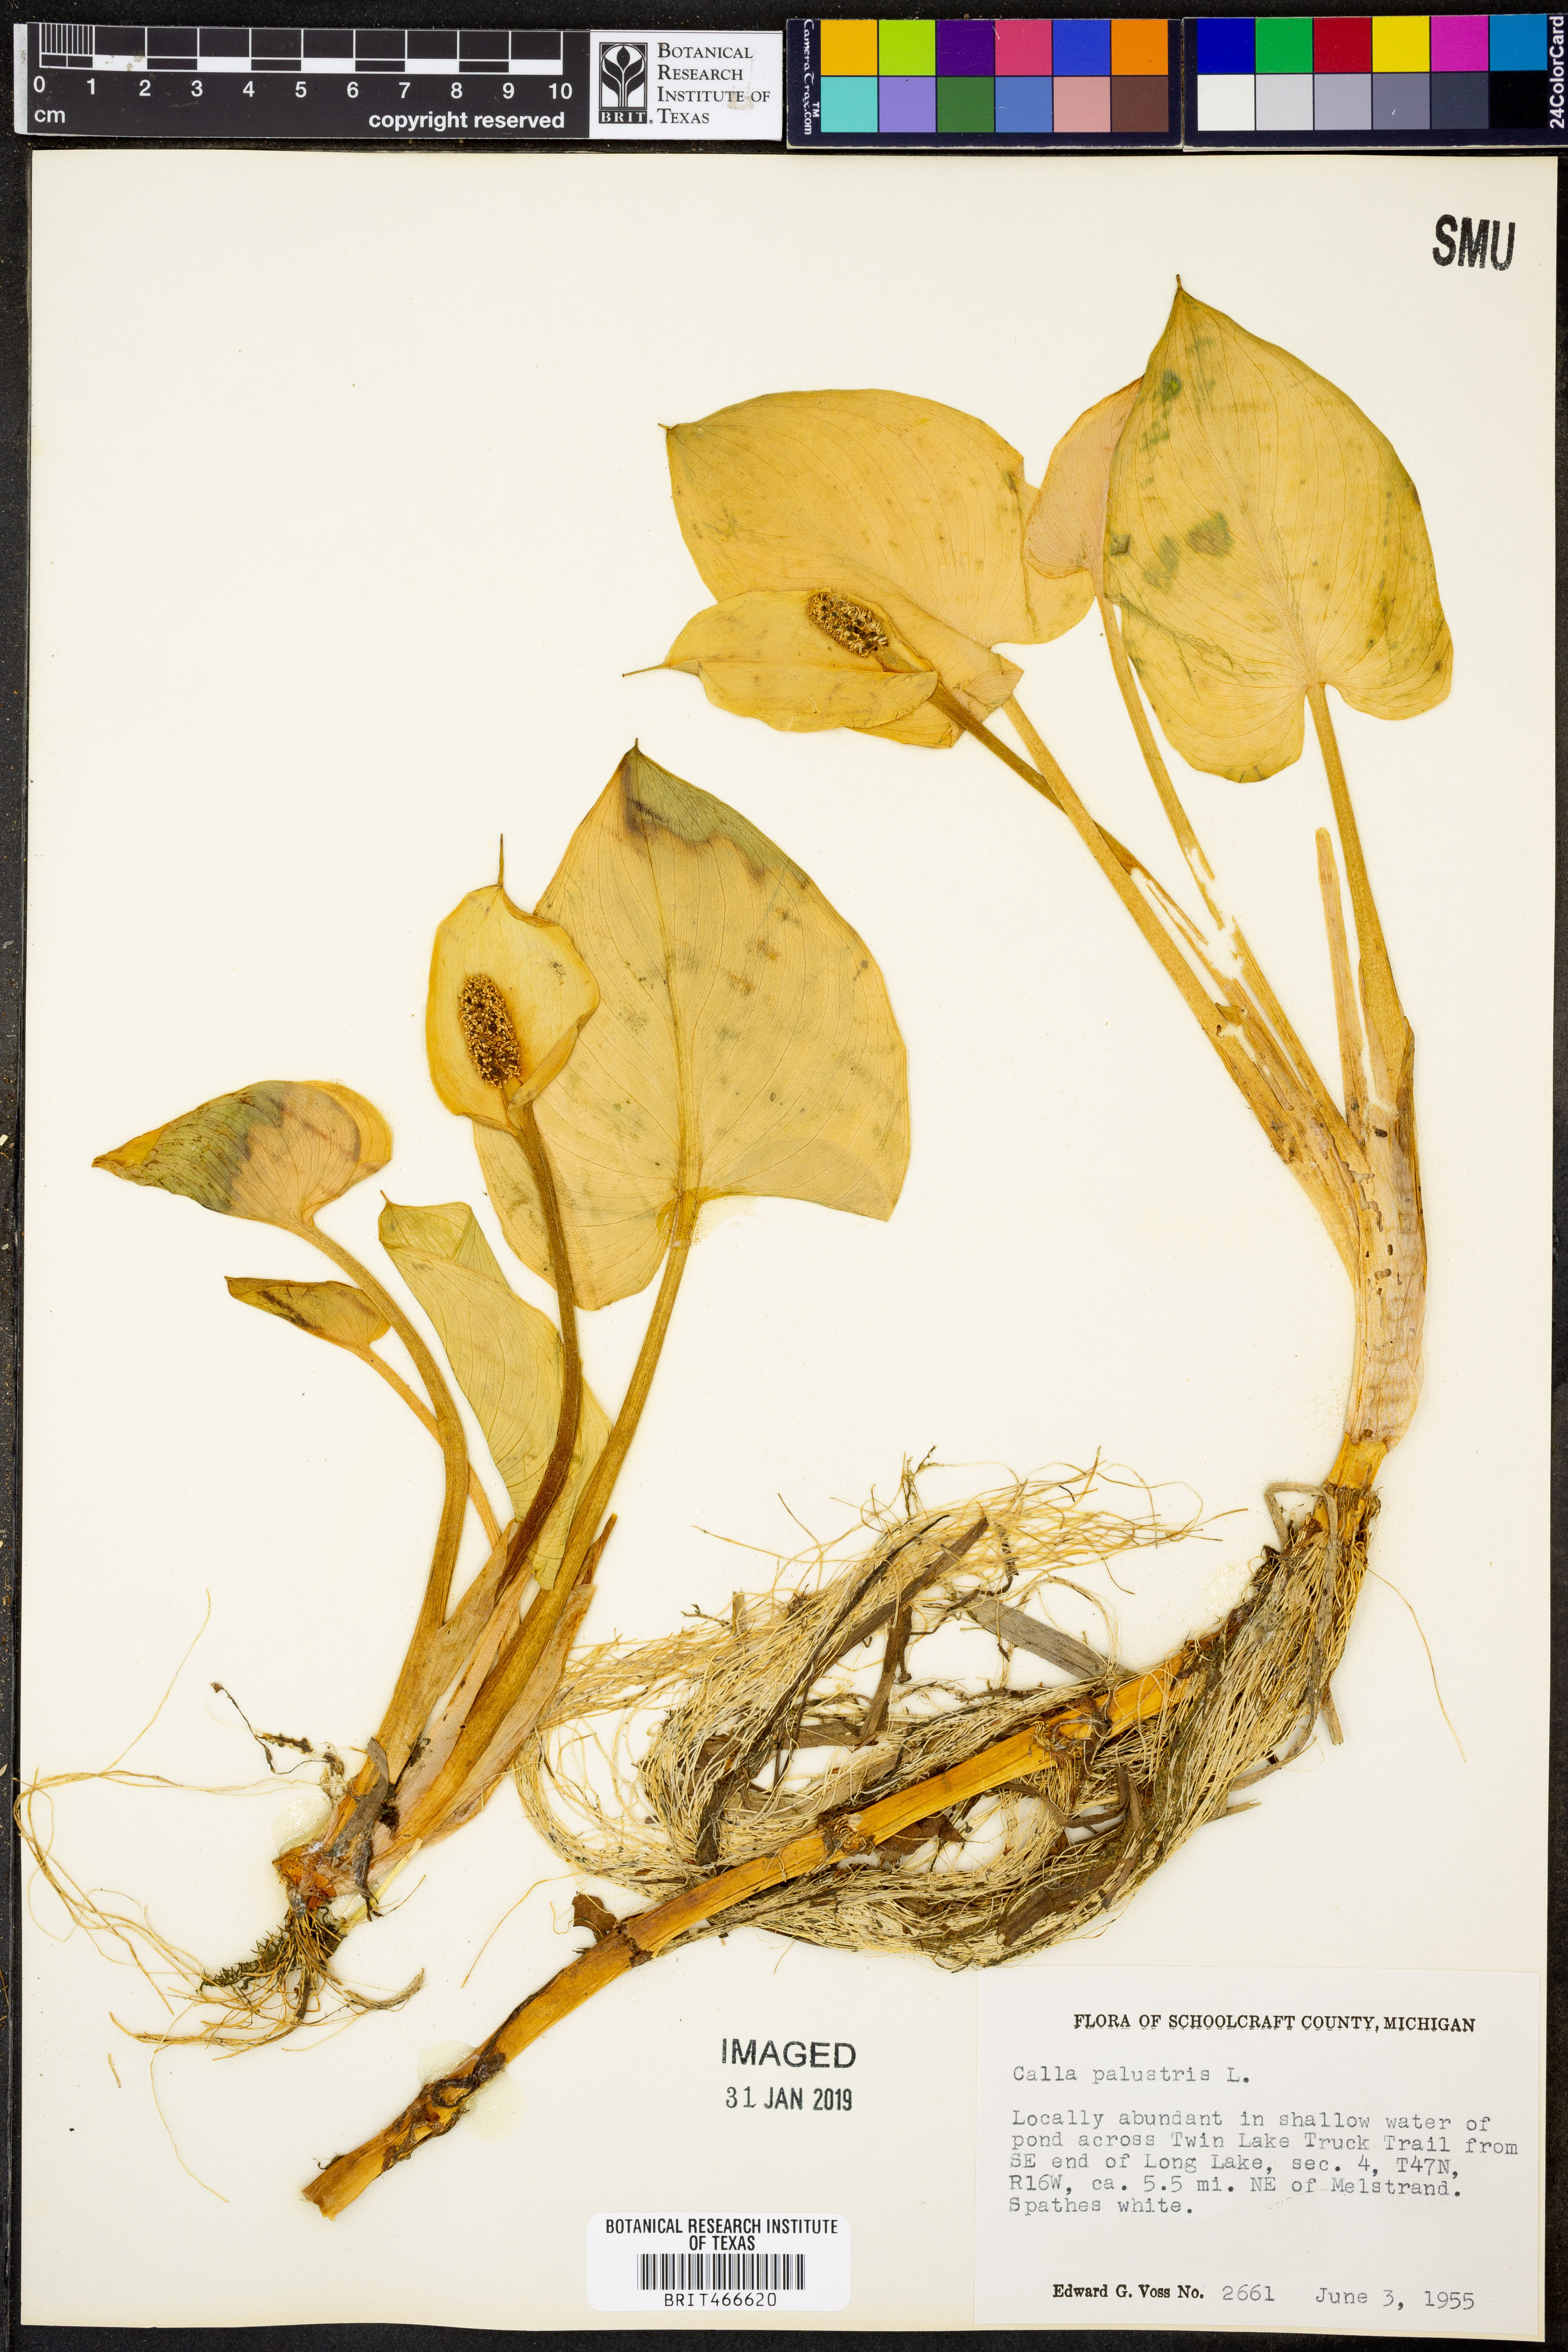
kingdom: Plantae
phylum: Tracheophyta
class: Liliopsida
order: Alismatales
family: Araceae
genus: Calla
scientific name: Calla palustris
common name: Bog arum
